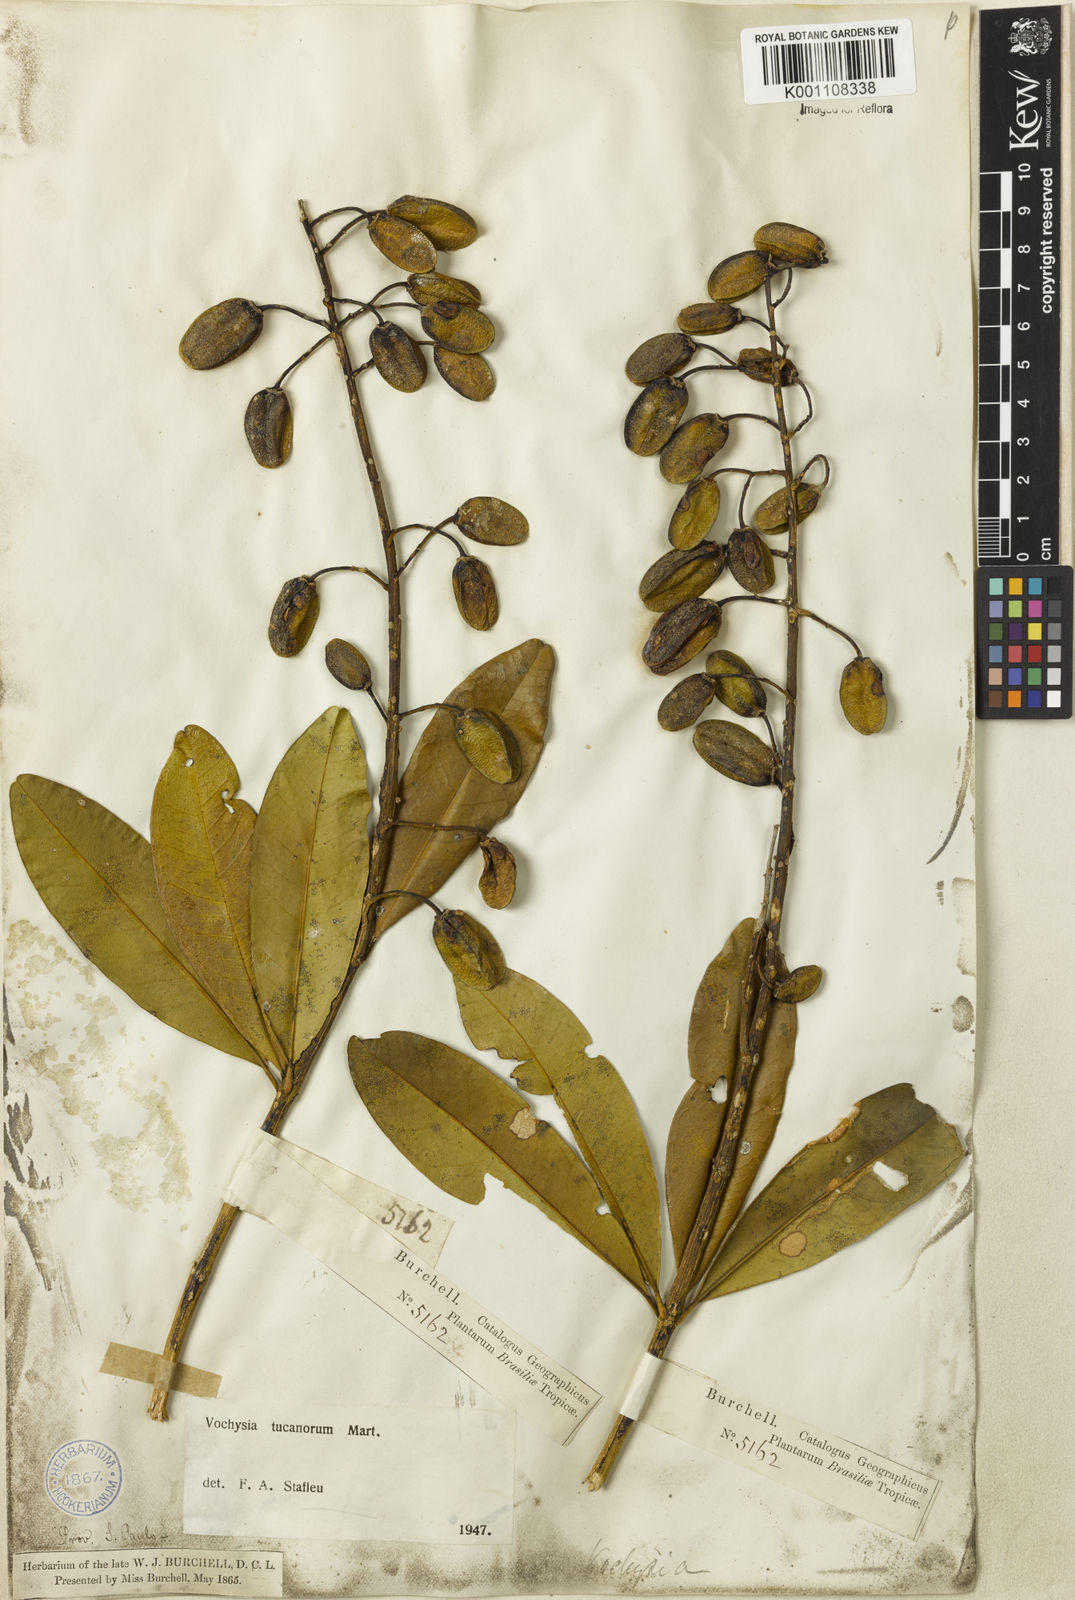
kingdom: Plantae
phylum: Tracheophyta
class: Magnoliopsida
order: Myrtales
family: Vochysiaceae
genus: Vochysia
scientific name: Vochysia tucanorum
